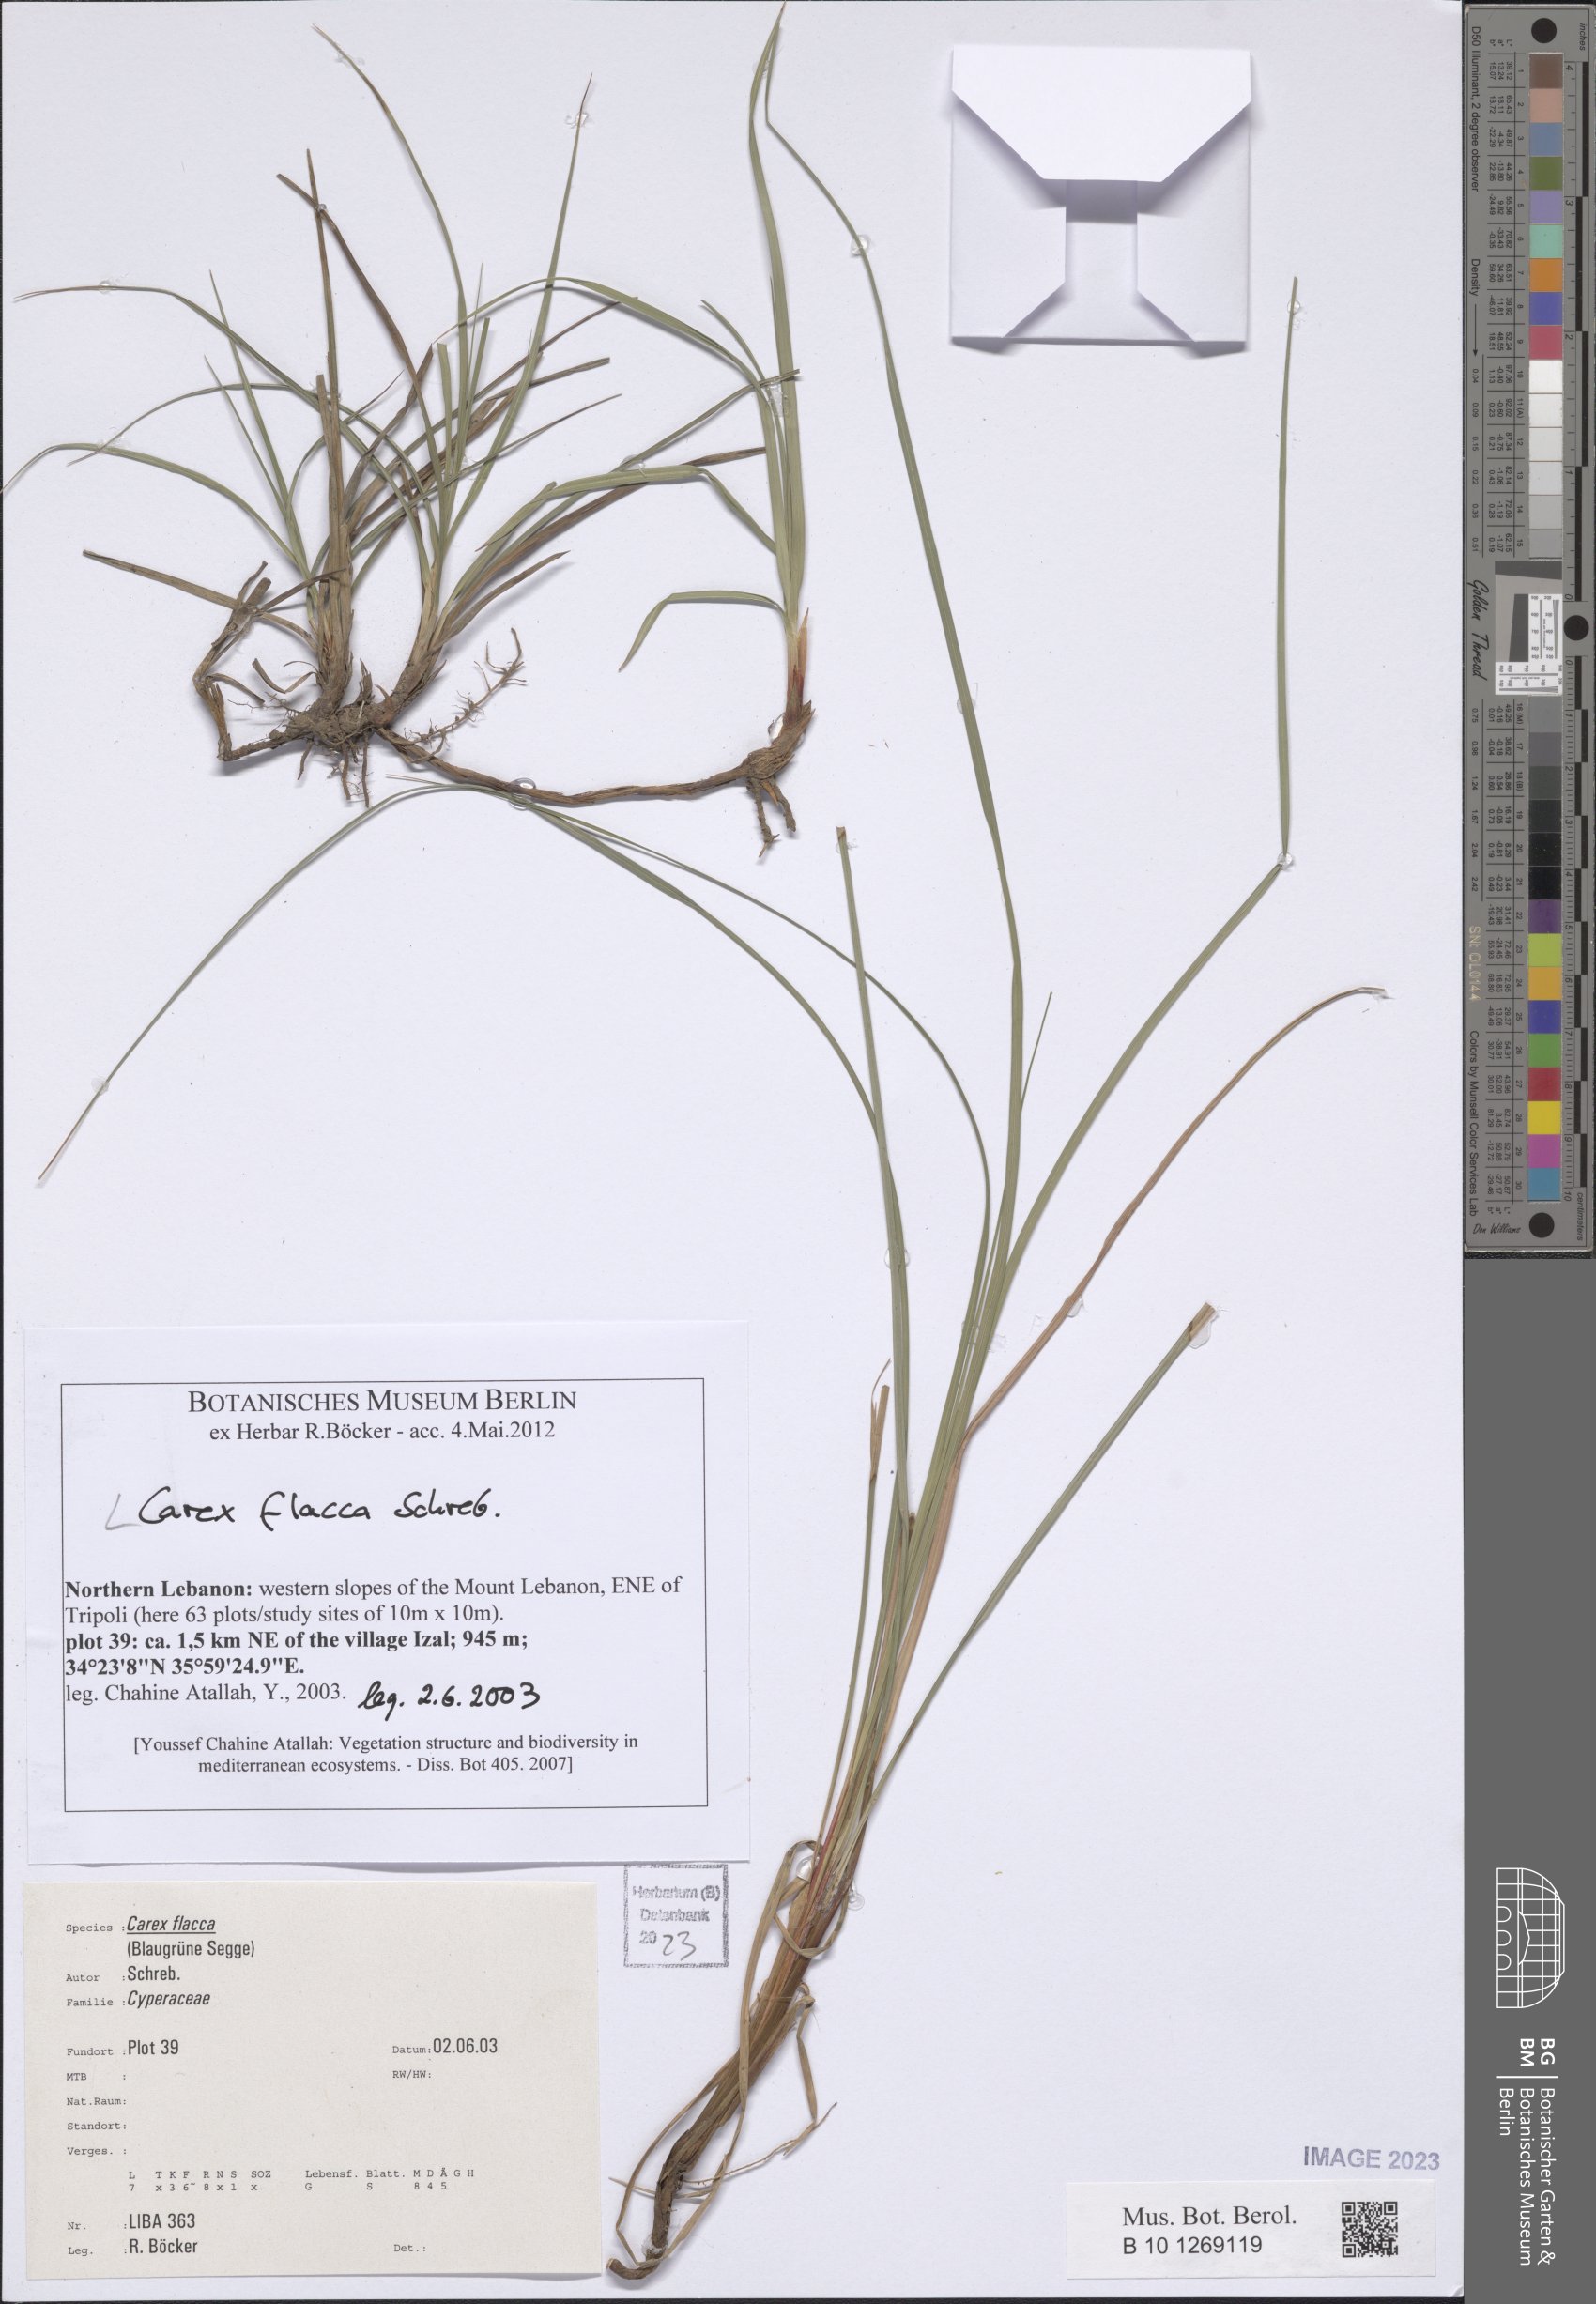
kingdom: Plantae
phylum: Tracheophyta
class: Liliopsida
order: Poales
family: Cyperaceae
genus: Carex
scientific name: Carex flacca
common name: Glaucous sedge
